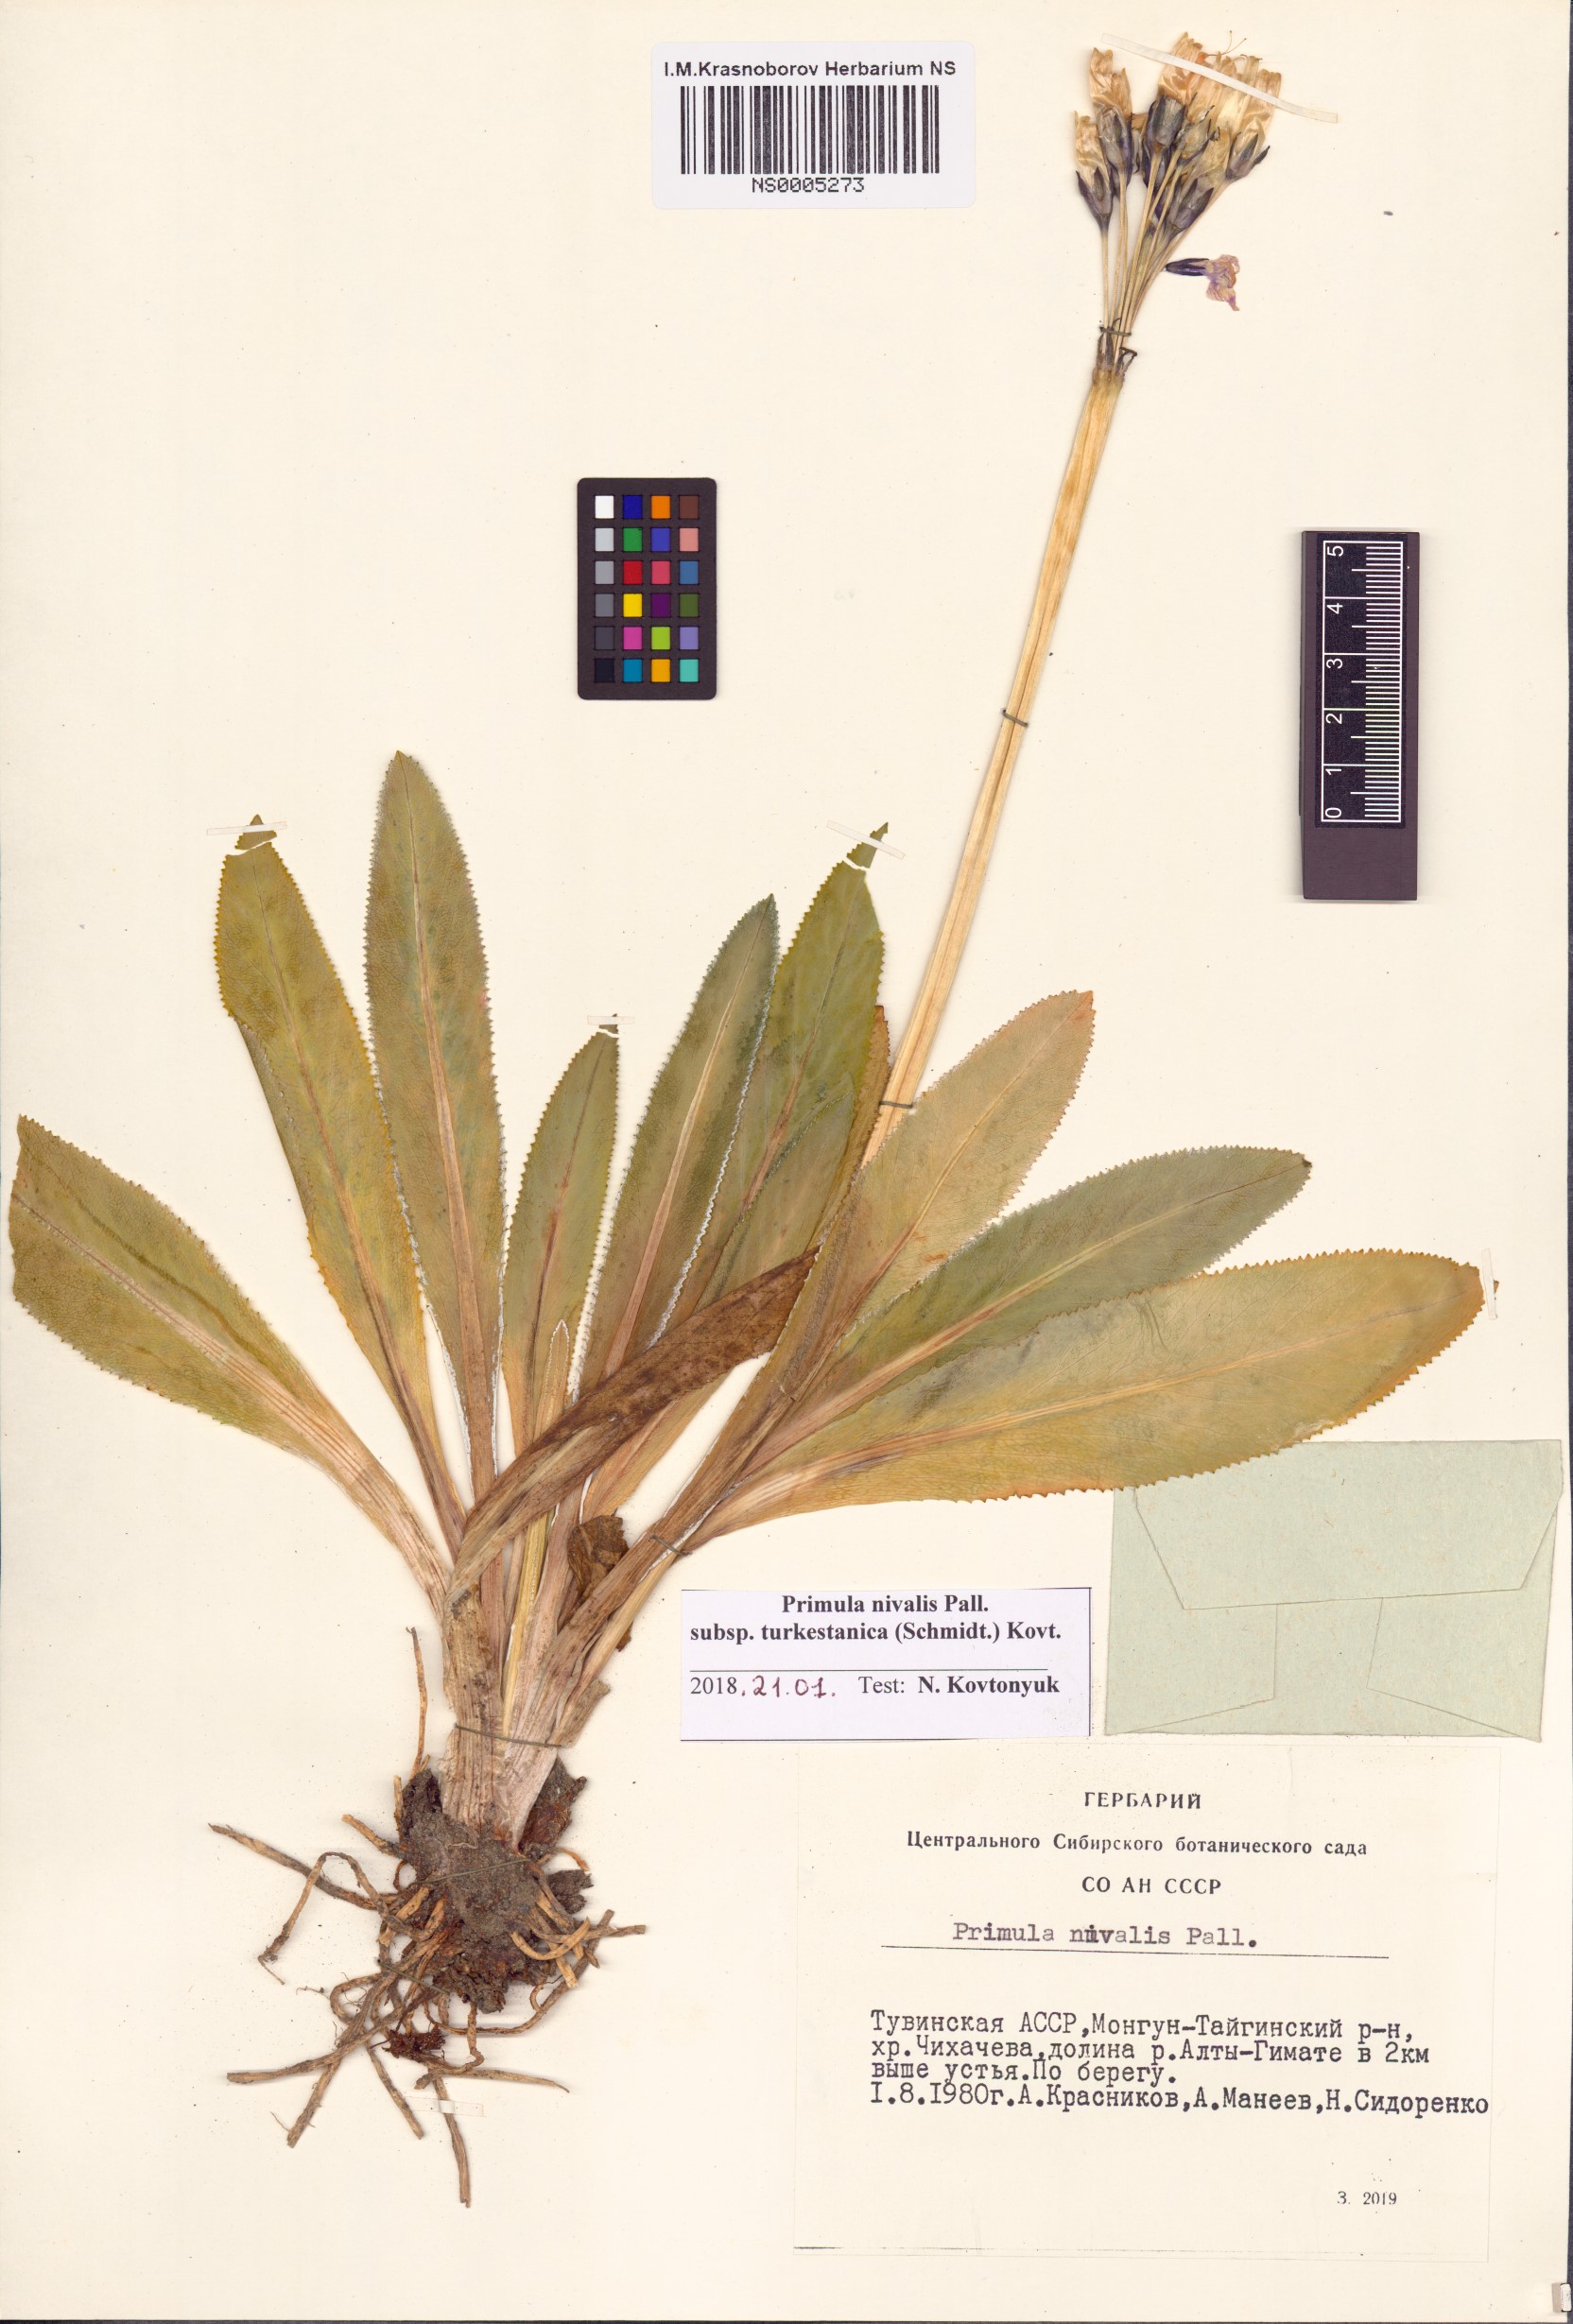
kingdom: Plantae
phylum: Tracheophyta
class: Magnoliopsida
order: Ericales
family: Primulaceae
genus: Primula
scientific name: Primula nivalis
